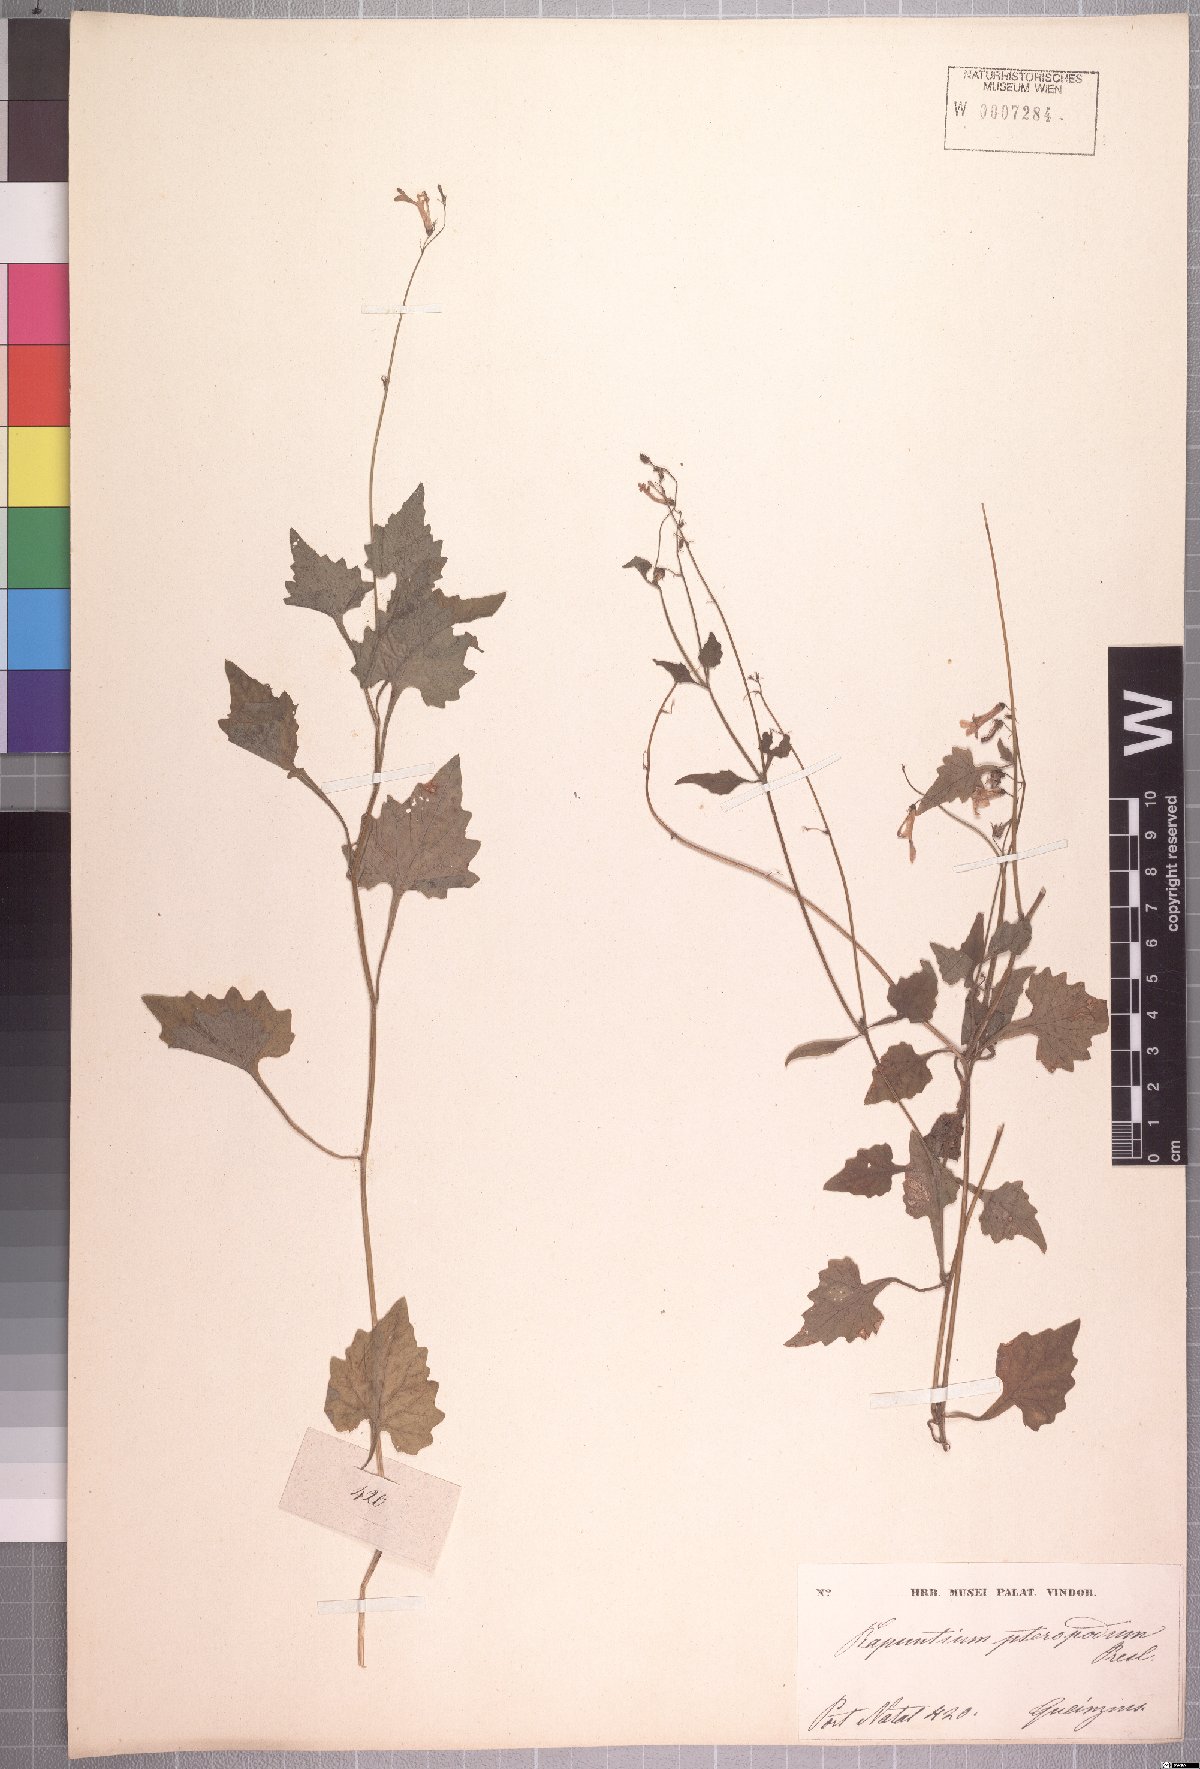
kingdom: Plantae
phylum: Tracheophyta
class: Magnoliopsida
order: Asterales
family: Campanulaceae
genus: Lobelia
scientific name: Lobelia pteropoda
